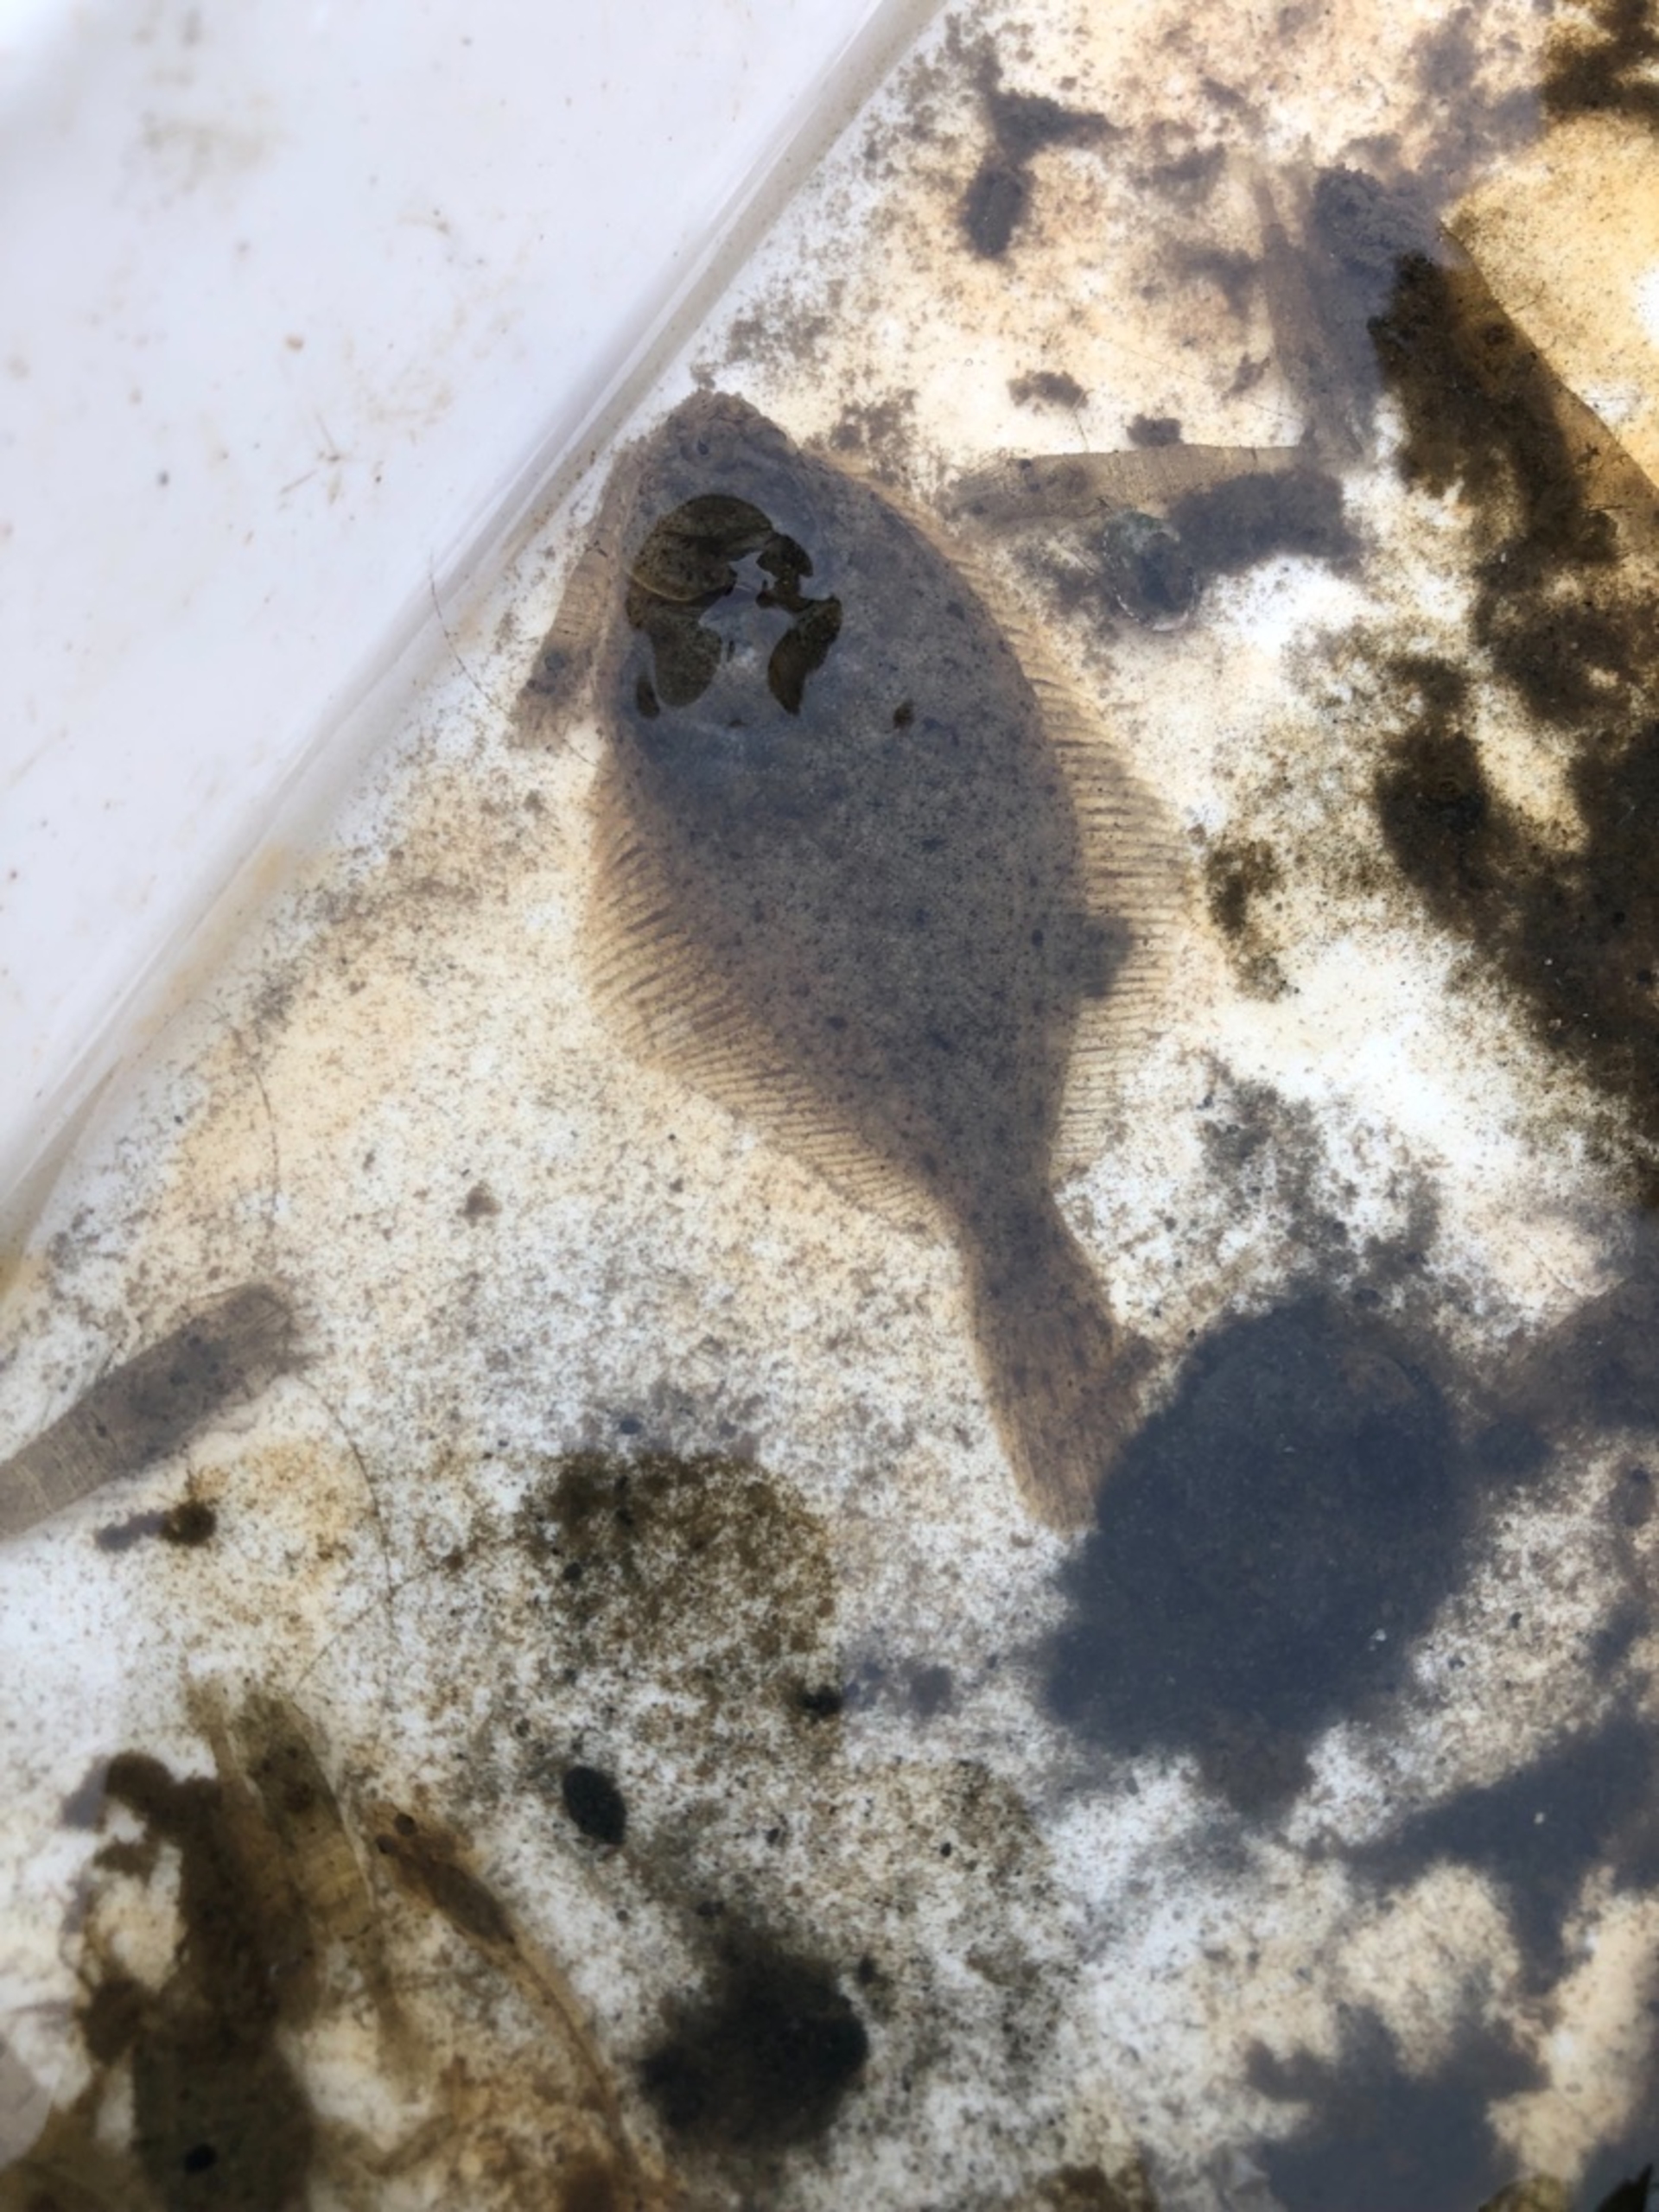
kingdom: Animalia
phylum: Chordata
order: Pleuronectiformes
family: Pleuronectidae
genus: Platichthys
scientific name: Platichthys flesus
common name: Skrubbe
